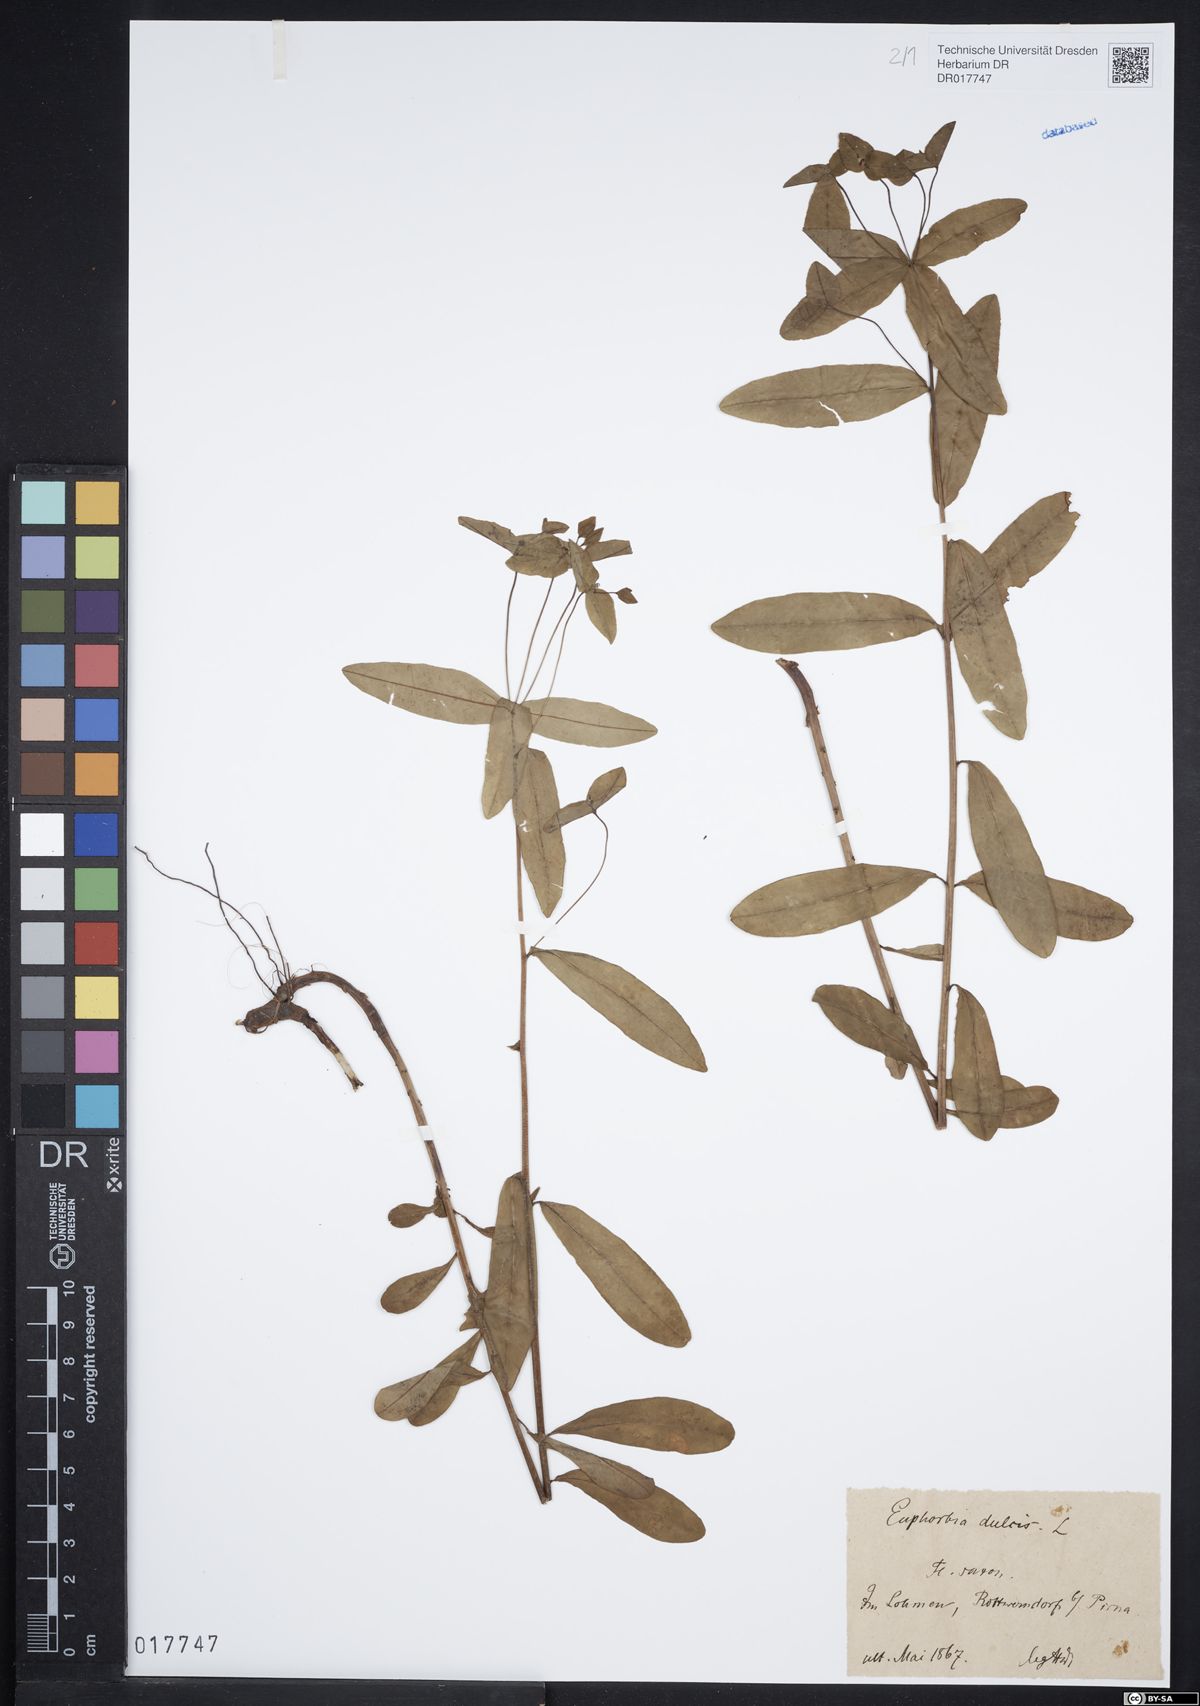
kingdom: Plantae
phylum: Tracheophyta
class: Magnoliopsida
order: Malpighiales
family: Euphorbiaceae
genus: Euphorbia
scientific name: Euphorbia dulcis
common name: Sweet spurge
